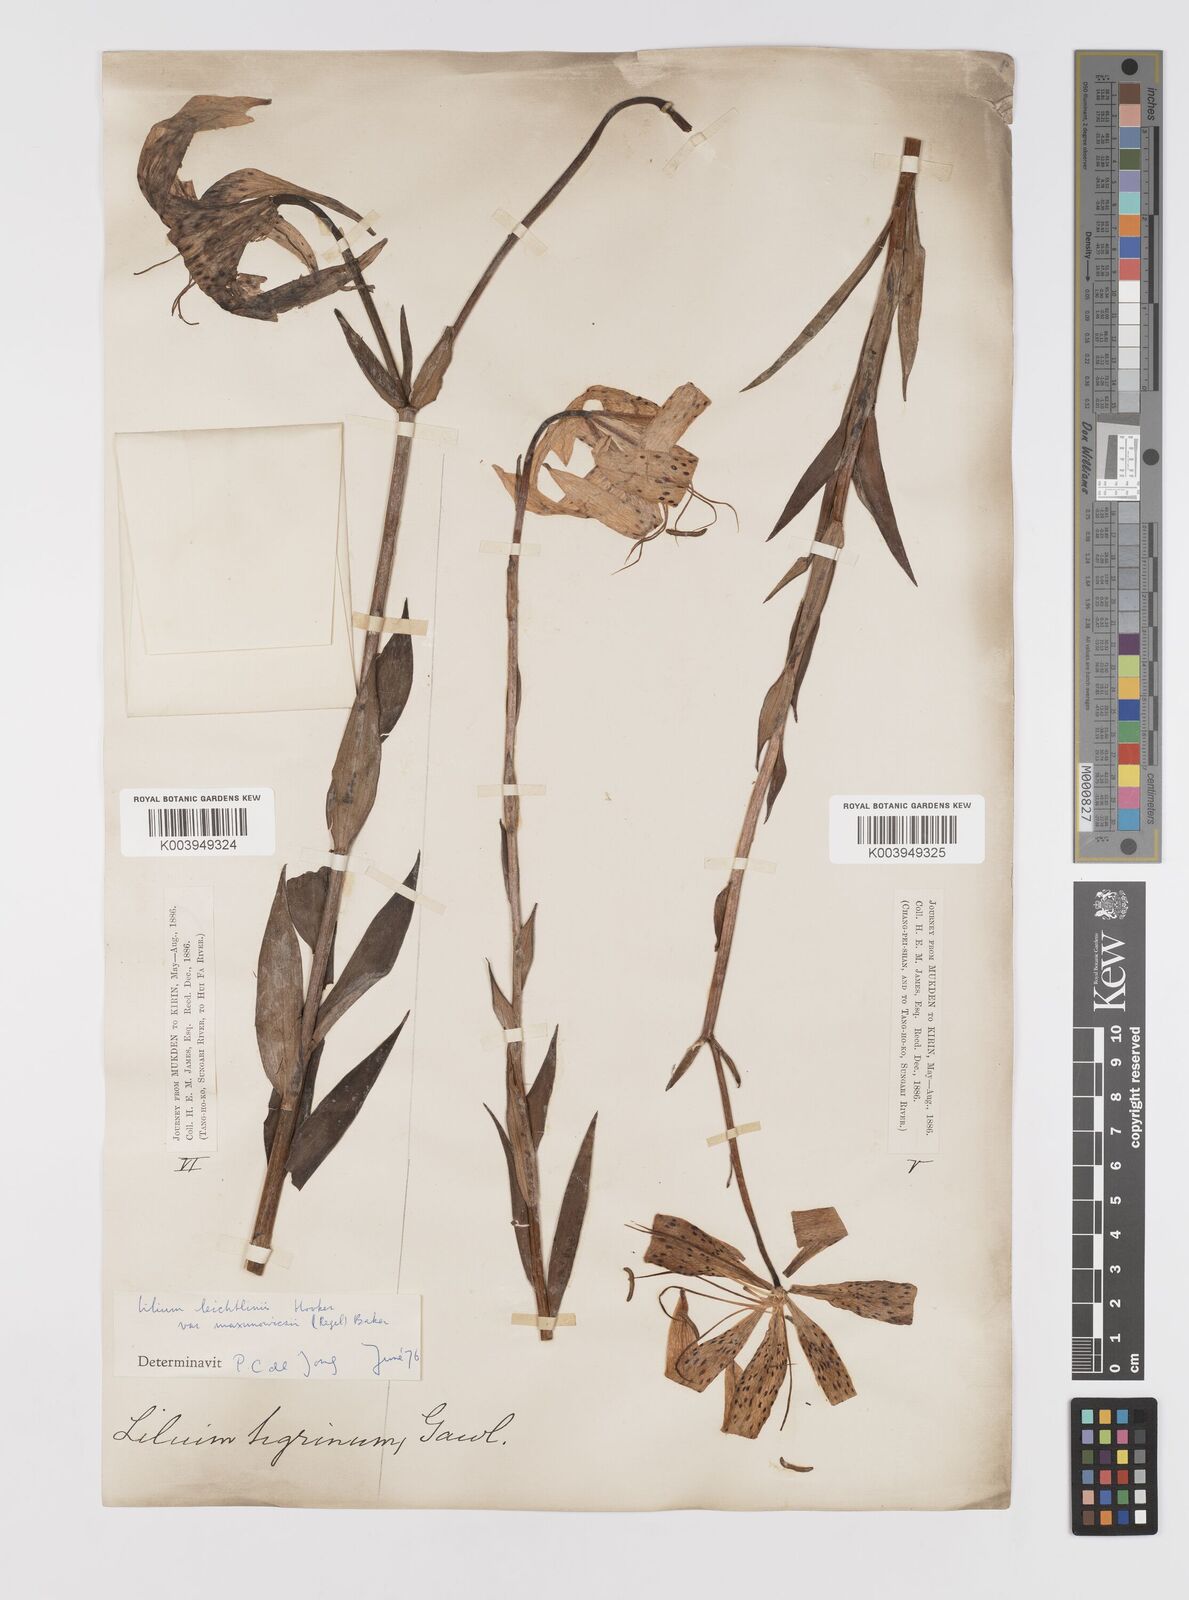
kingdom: Plantae
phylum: Tracheophyta
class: Liliopsida
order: Liliales
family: Liliaceae
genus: Lilium
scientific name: Lilium leichtlinii
